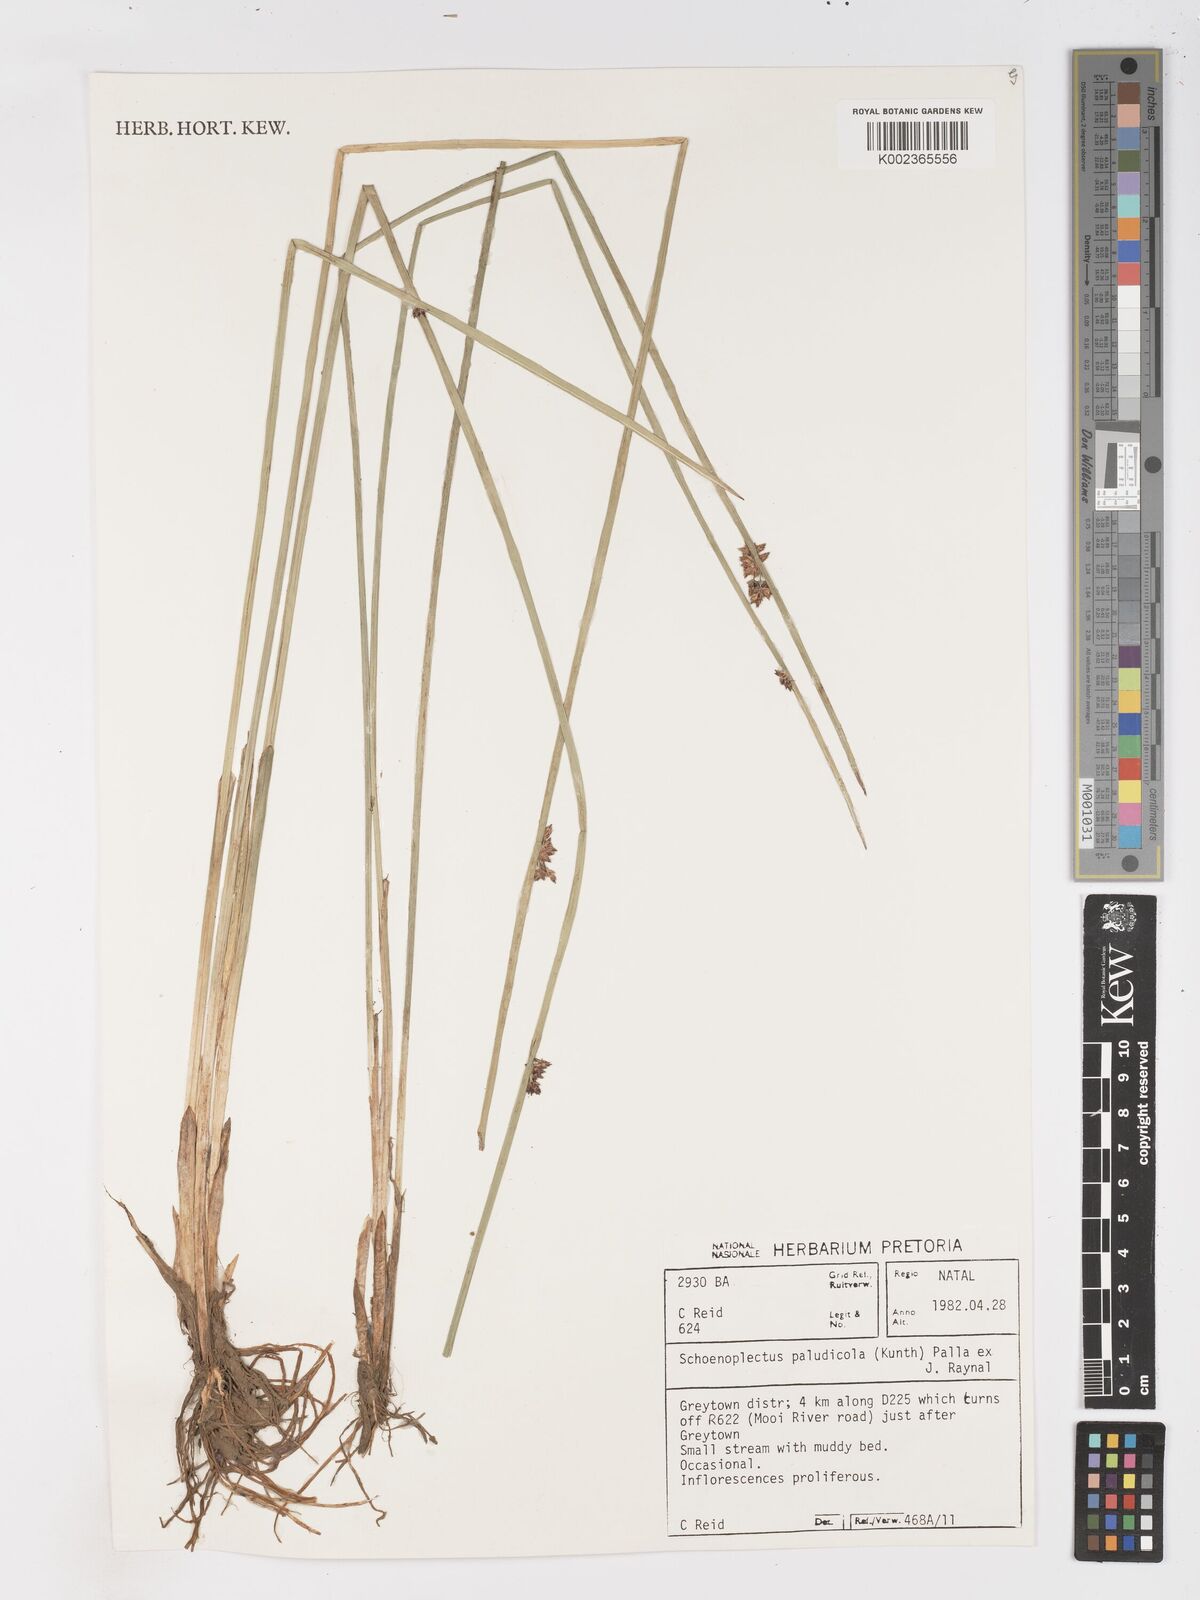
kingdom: Plantae
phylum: Tracheophyta
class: Liliopsida
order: Poales
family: Cyperaceae
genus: Schoenoplectiella
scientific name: Schoenoplectiella paludicola
